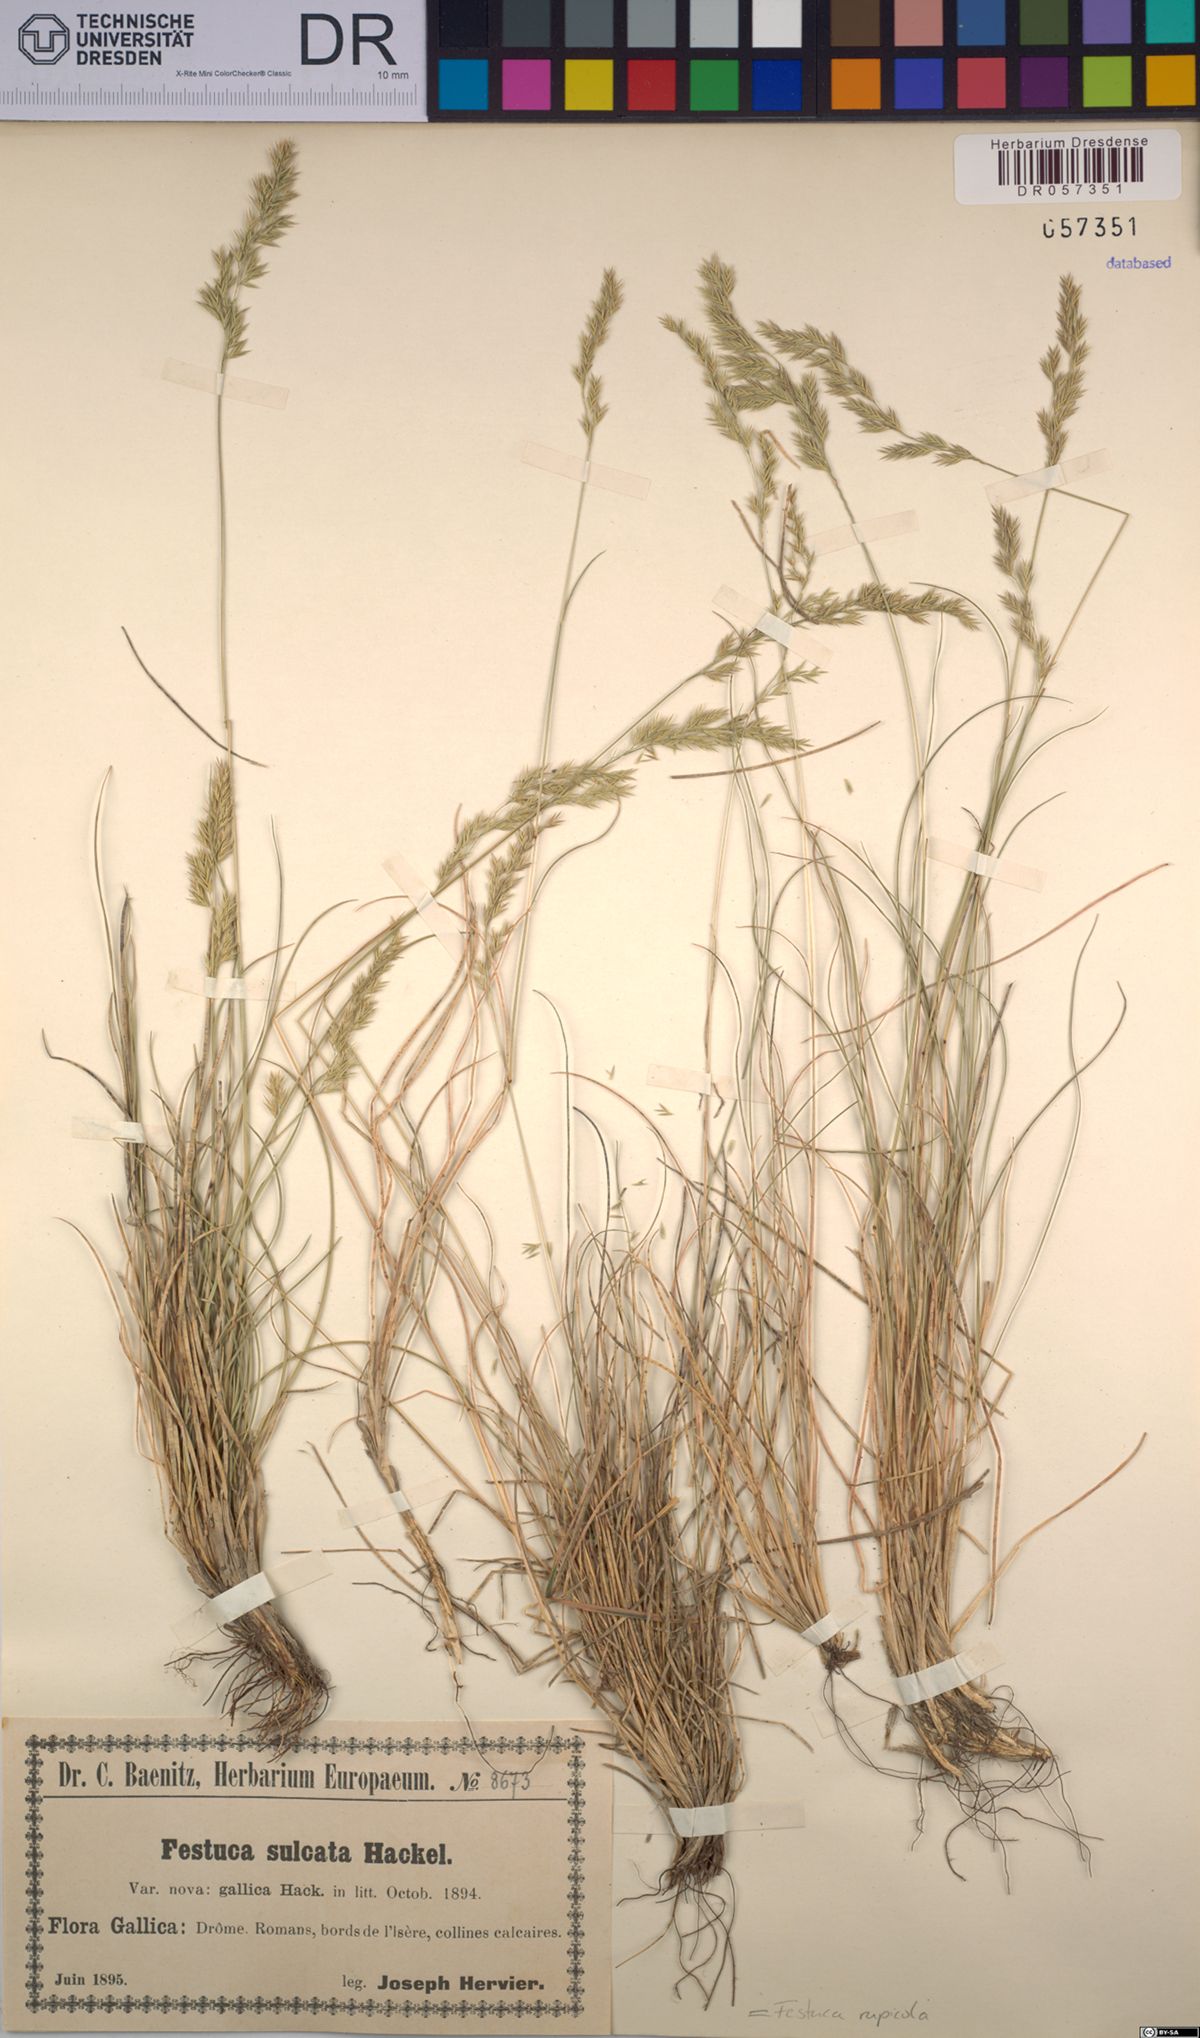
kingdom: Plantae
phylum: Tracheophyta
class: Liliopsida
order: Poales
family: Poaceae
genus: Festuca
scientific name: Festuca rupicola
